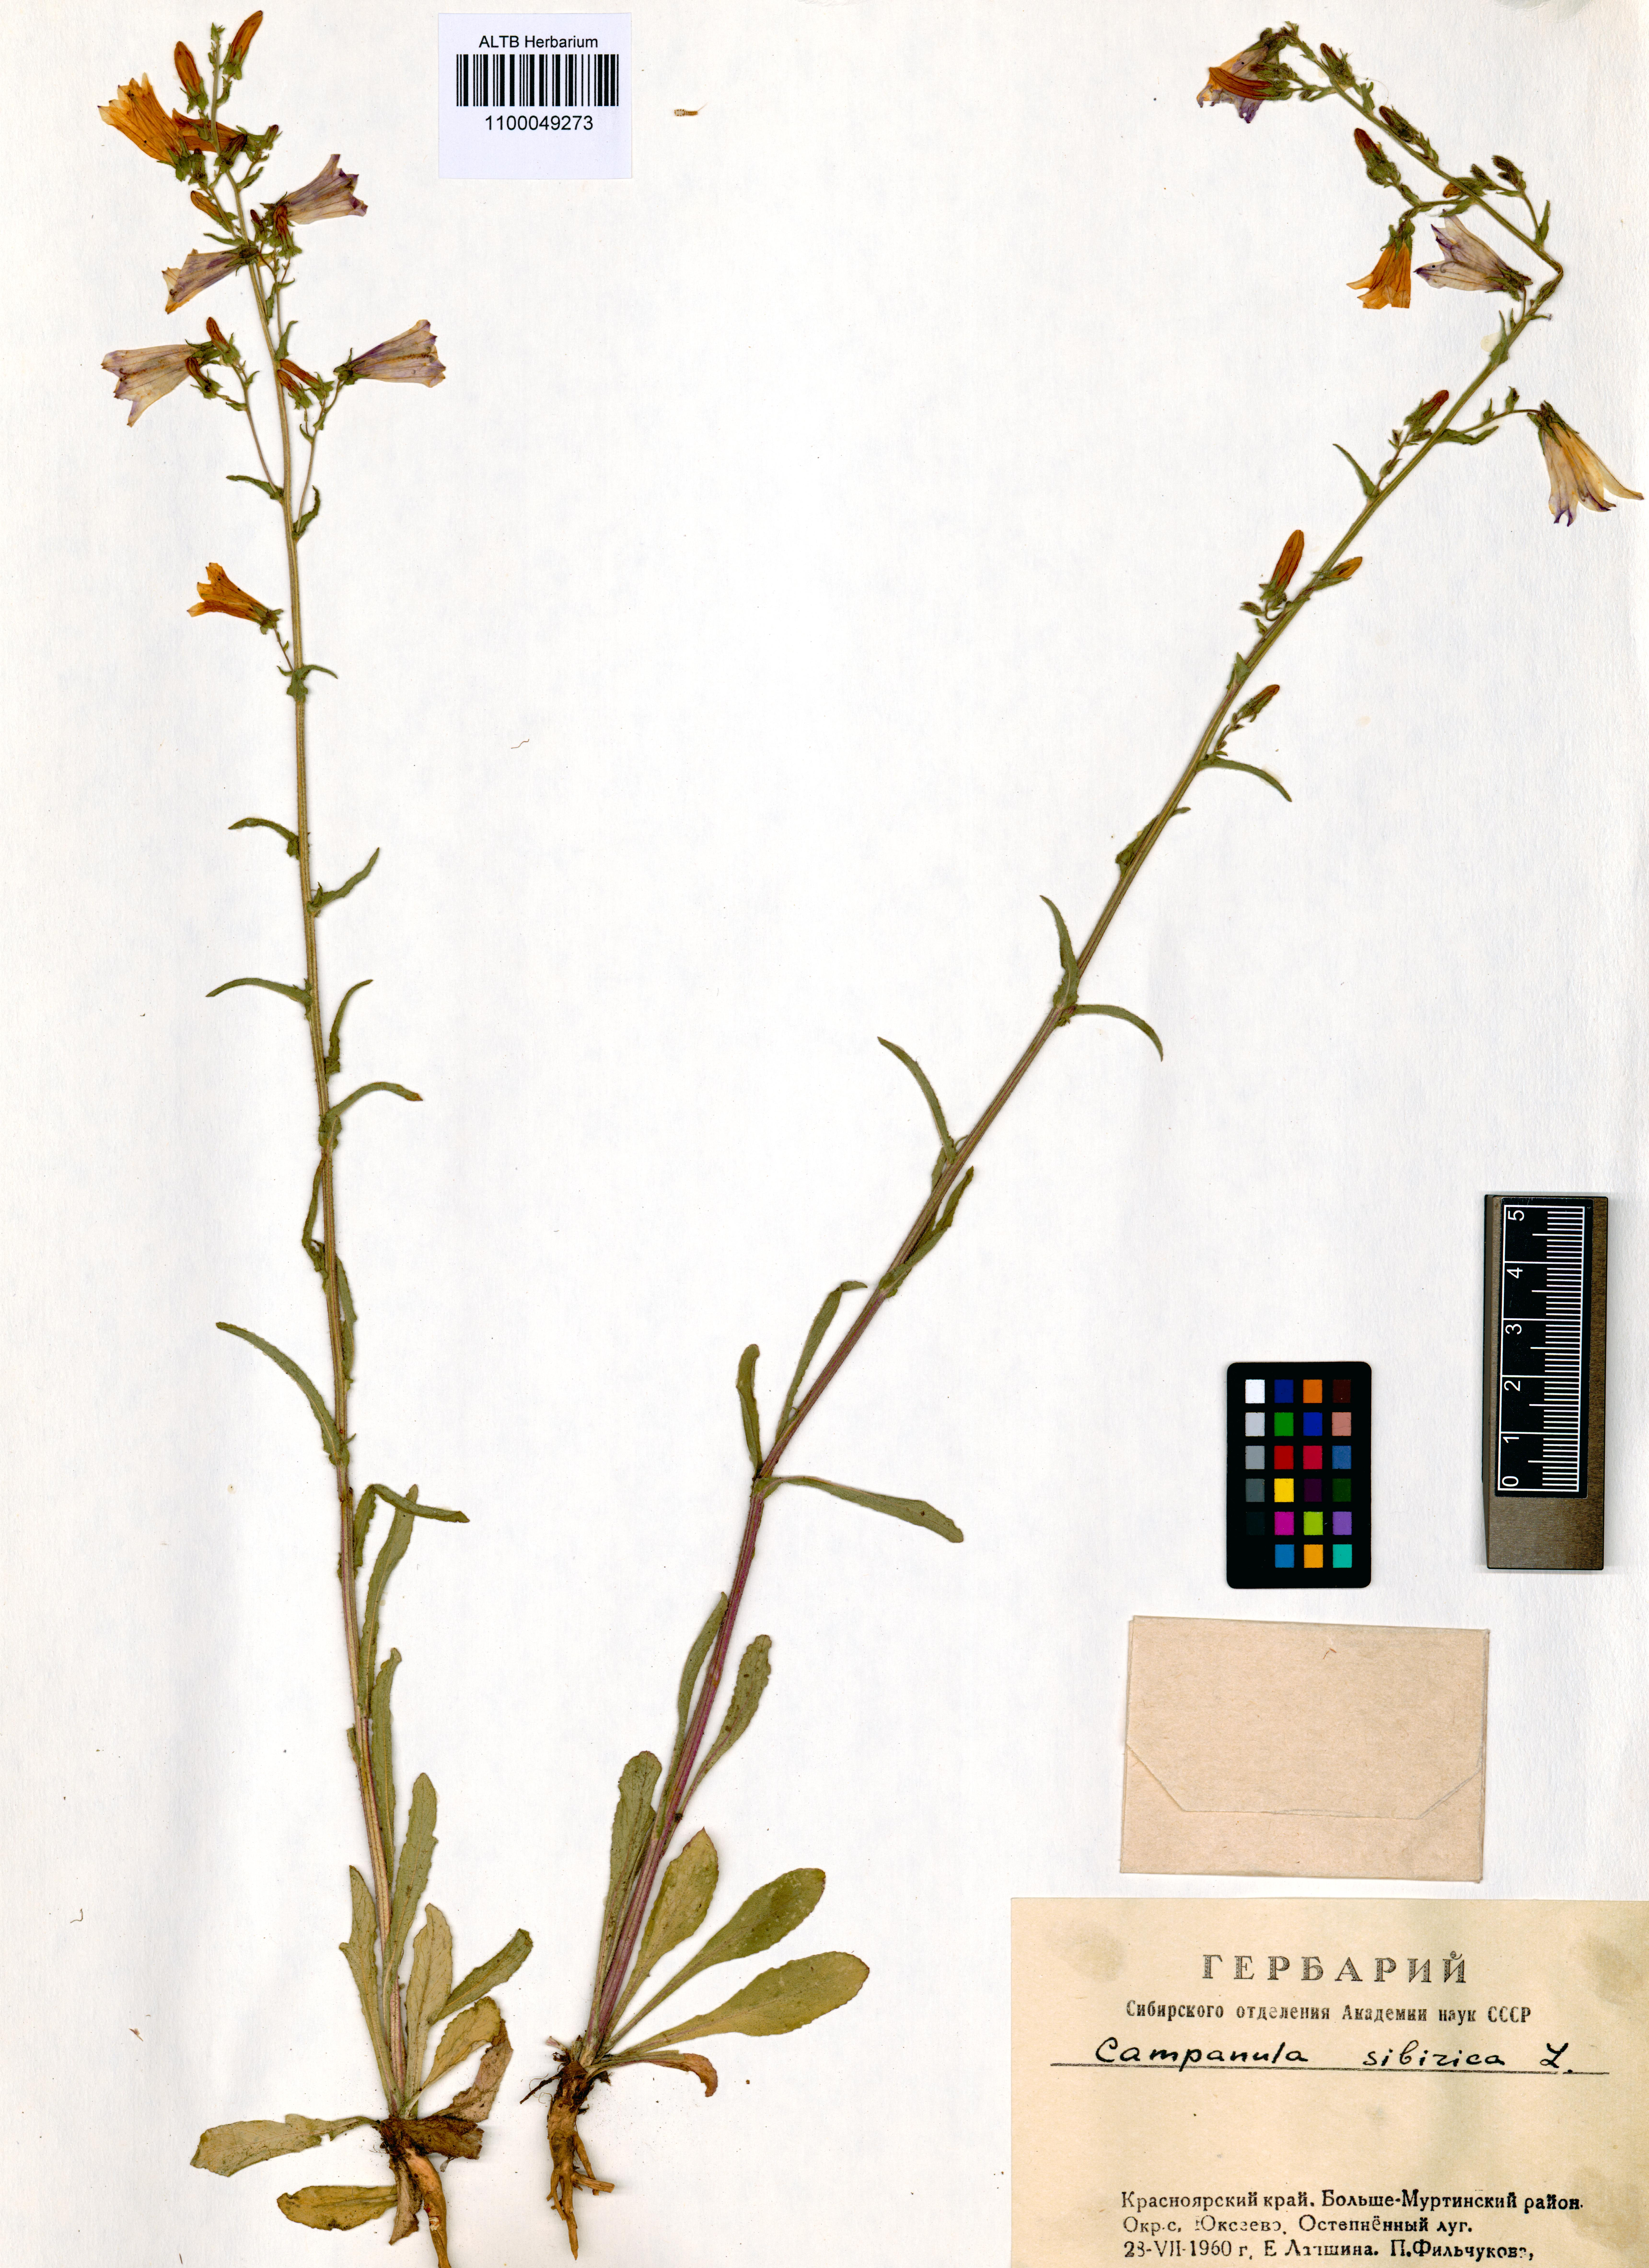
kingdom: Plantae
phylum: Tracheophyta
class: Magnoliopsida
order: Asterales
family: Campanulaceae
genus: Campanula
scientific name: Campanula sibirica
